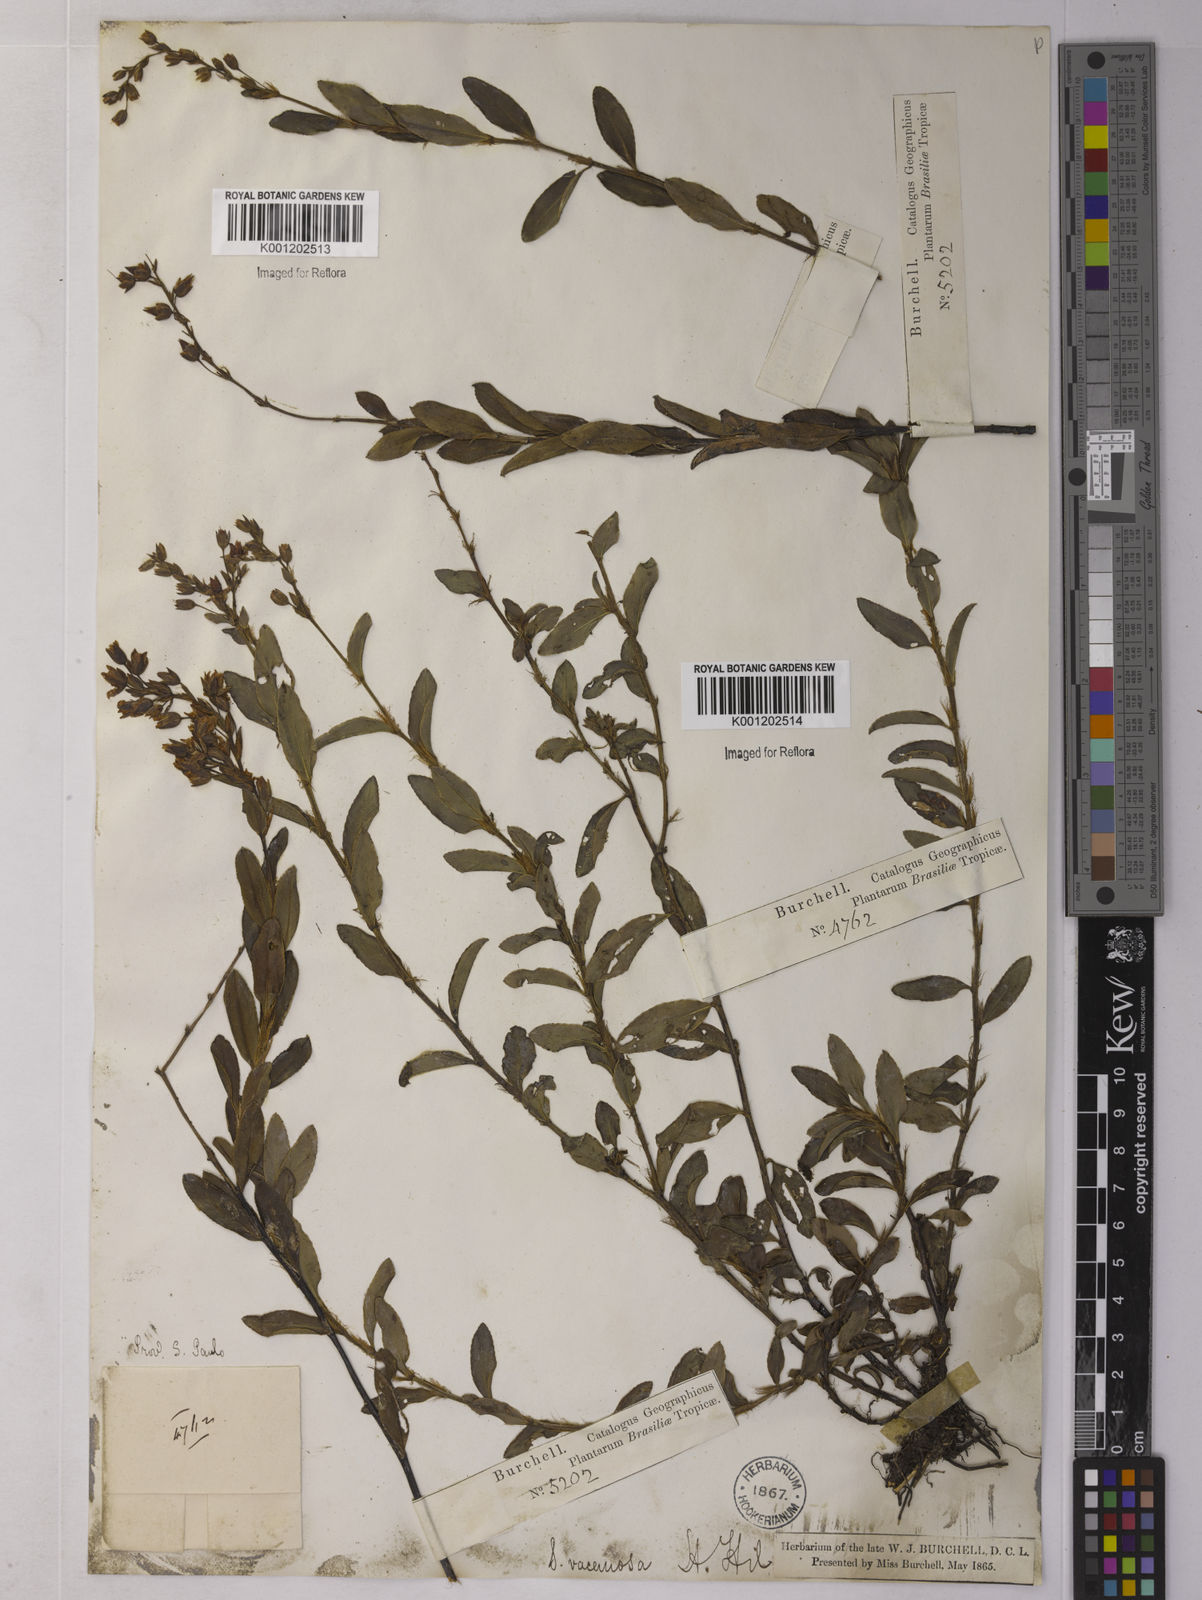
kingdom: Plantae
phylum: Tracheophyta
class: Magnoliopsida
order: Malpighiales
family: Ochnaceae
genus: Sauvagesia
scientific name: Sauvagesia racemosa
